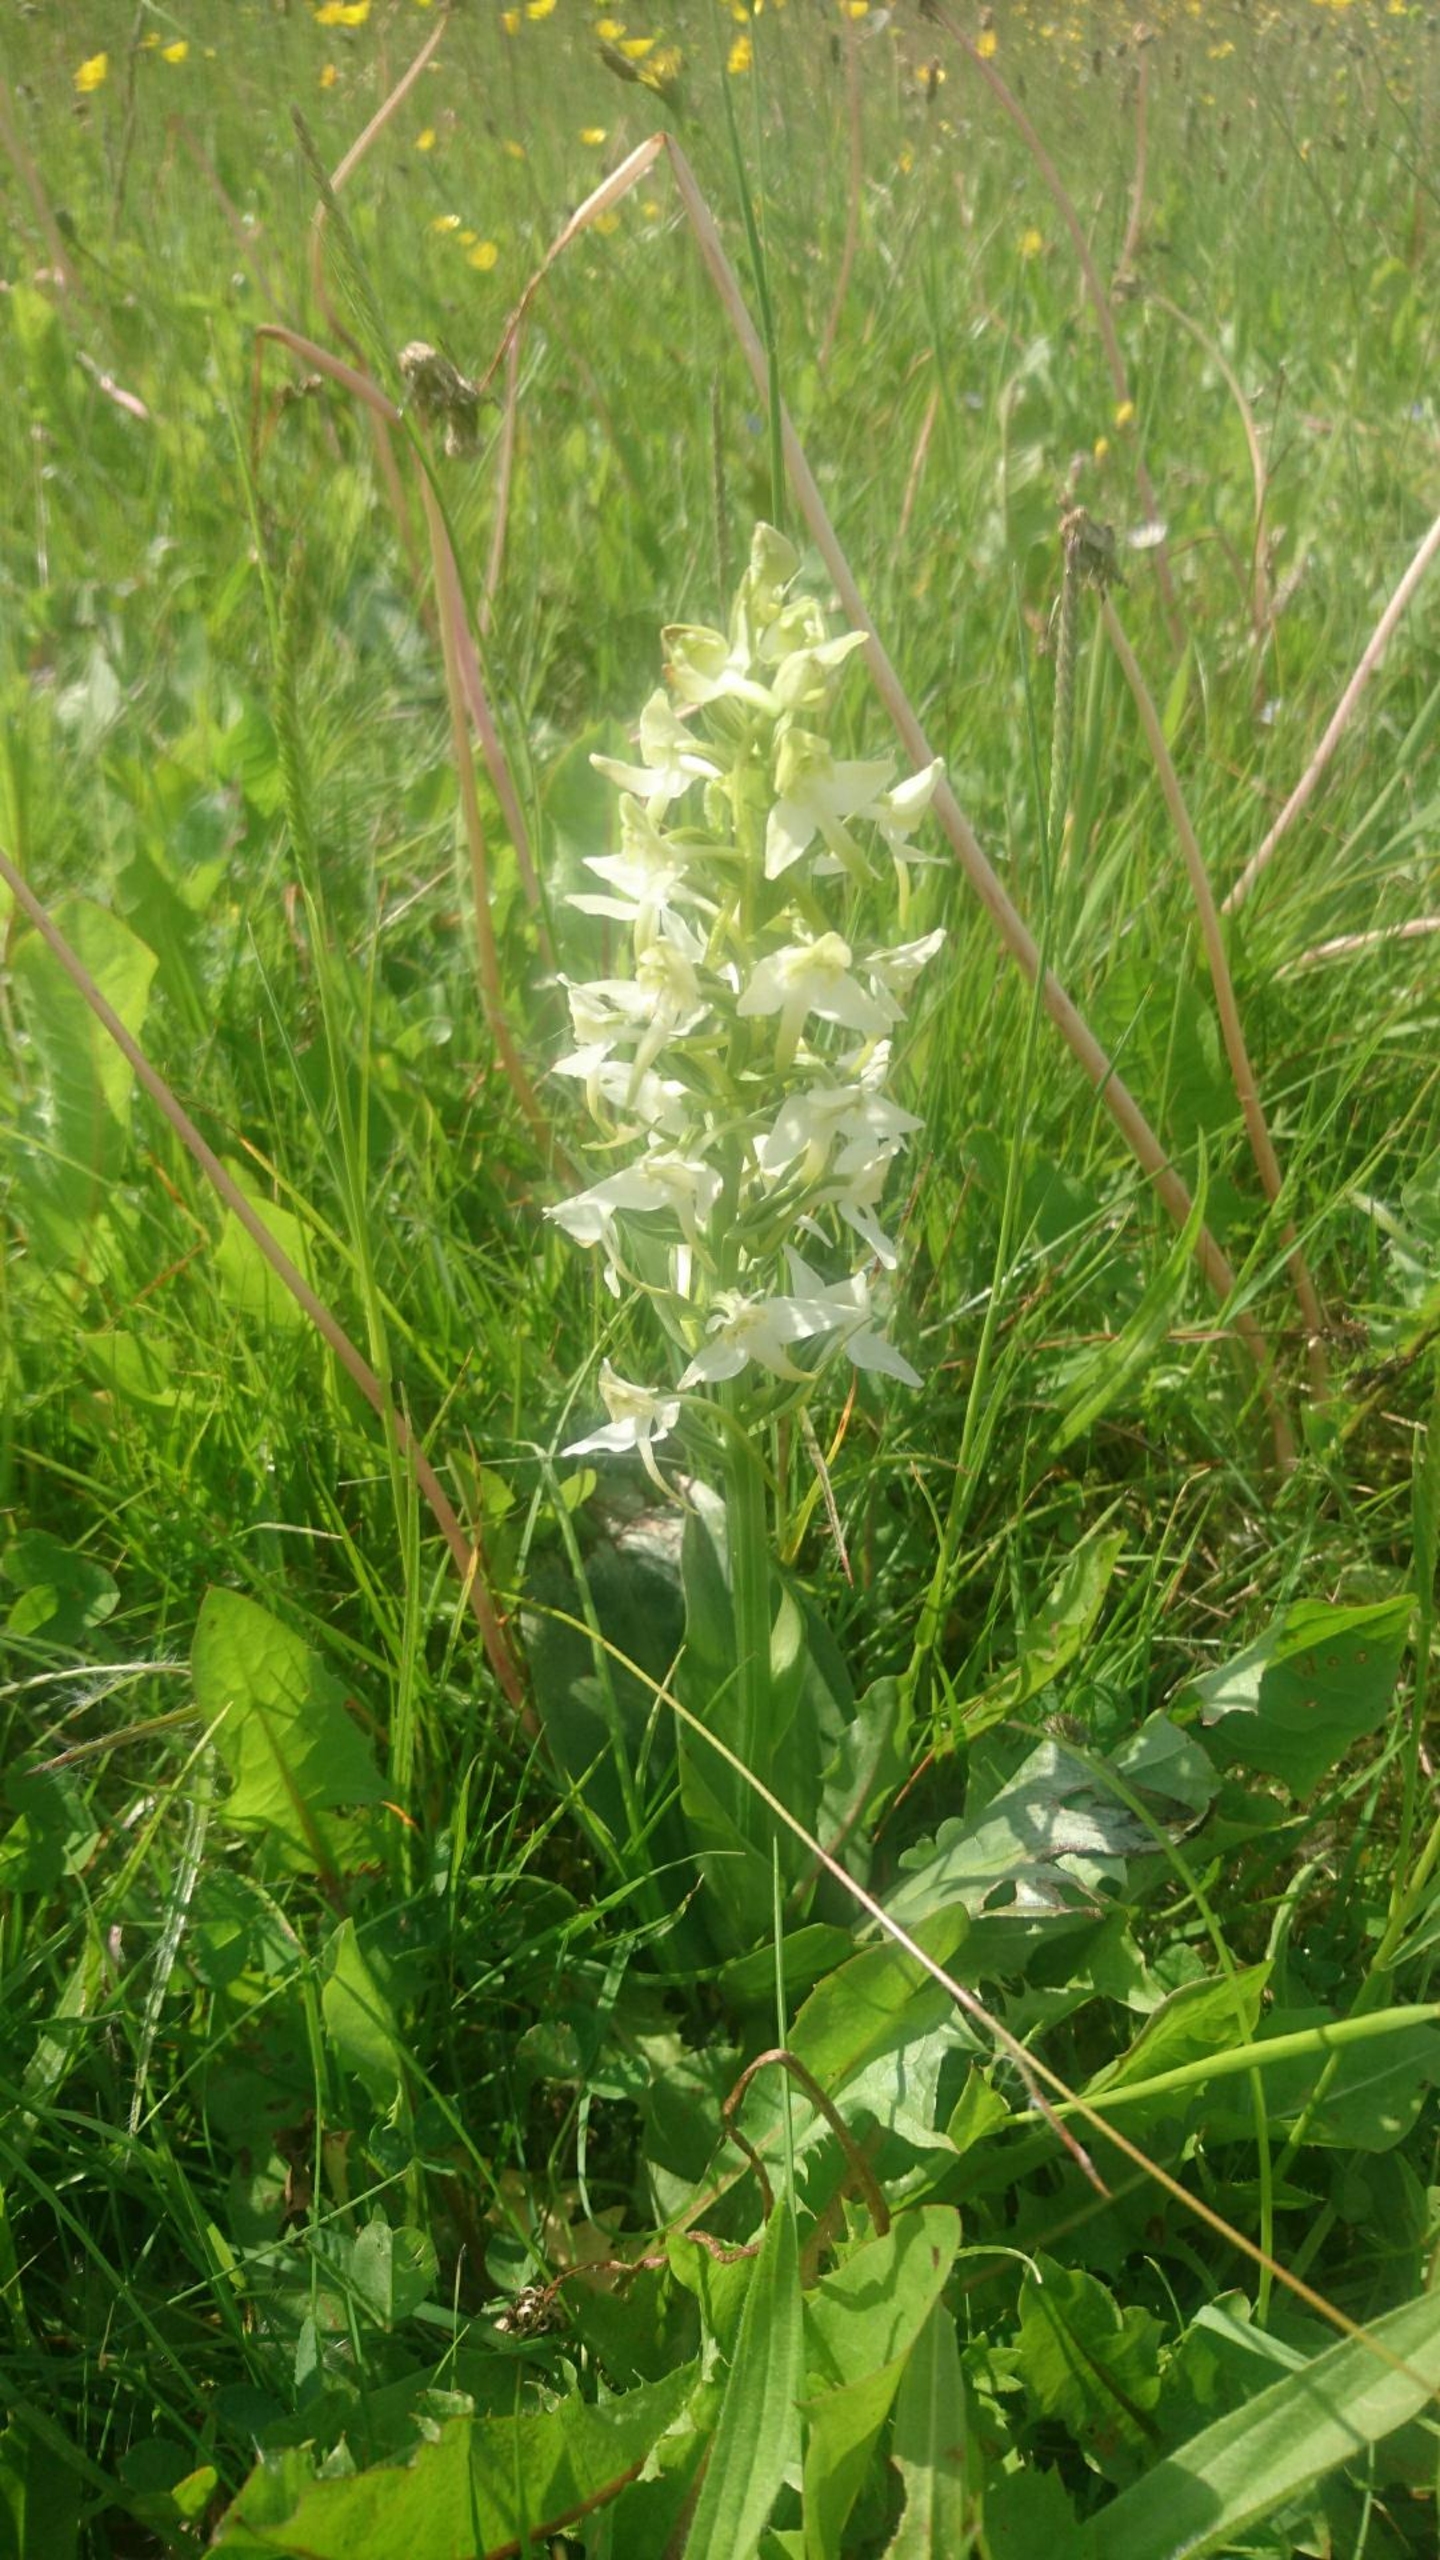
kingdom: Plantae
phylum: Tracheophyta
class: Liliopsida
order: Asparagales
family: Orchidaceae
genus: Platanthera
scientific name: Platanthera chlorantha
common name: Skov-gøgelilje
